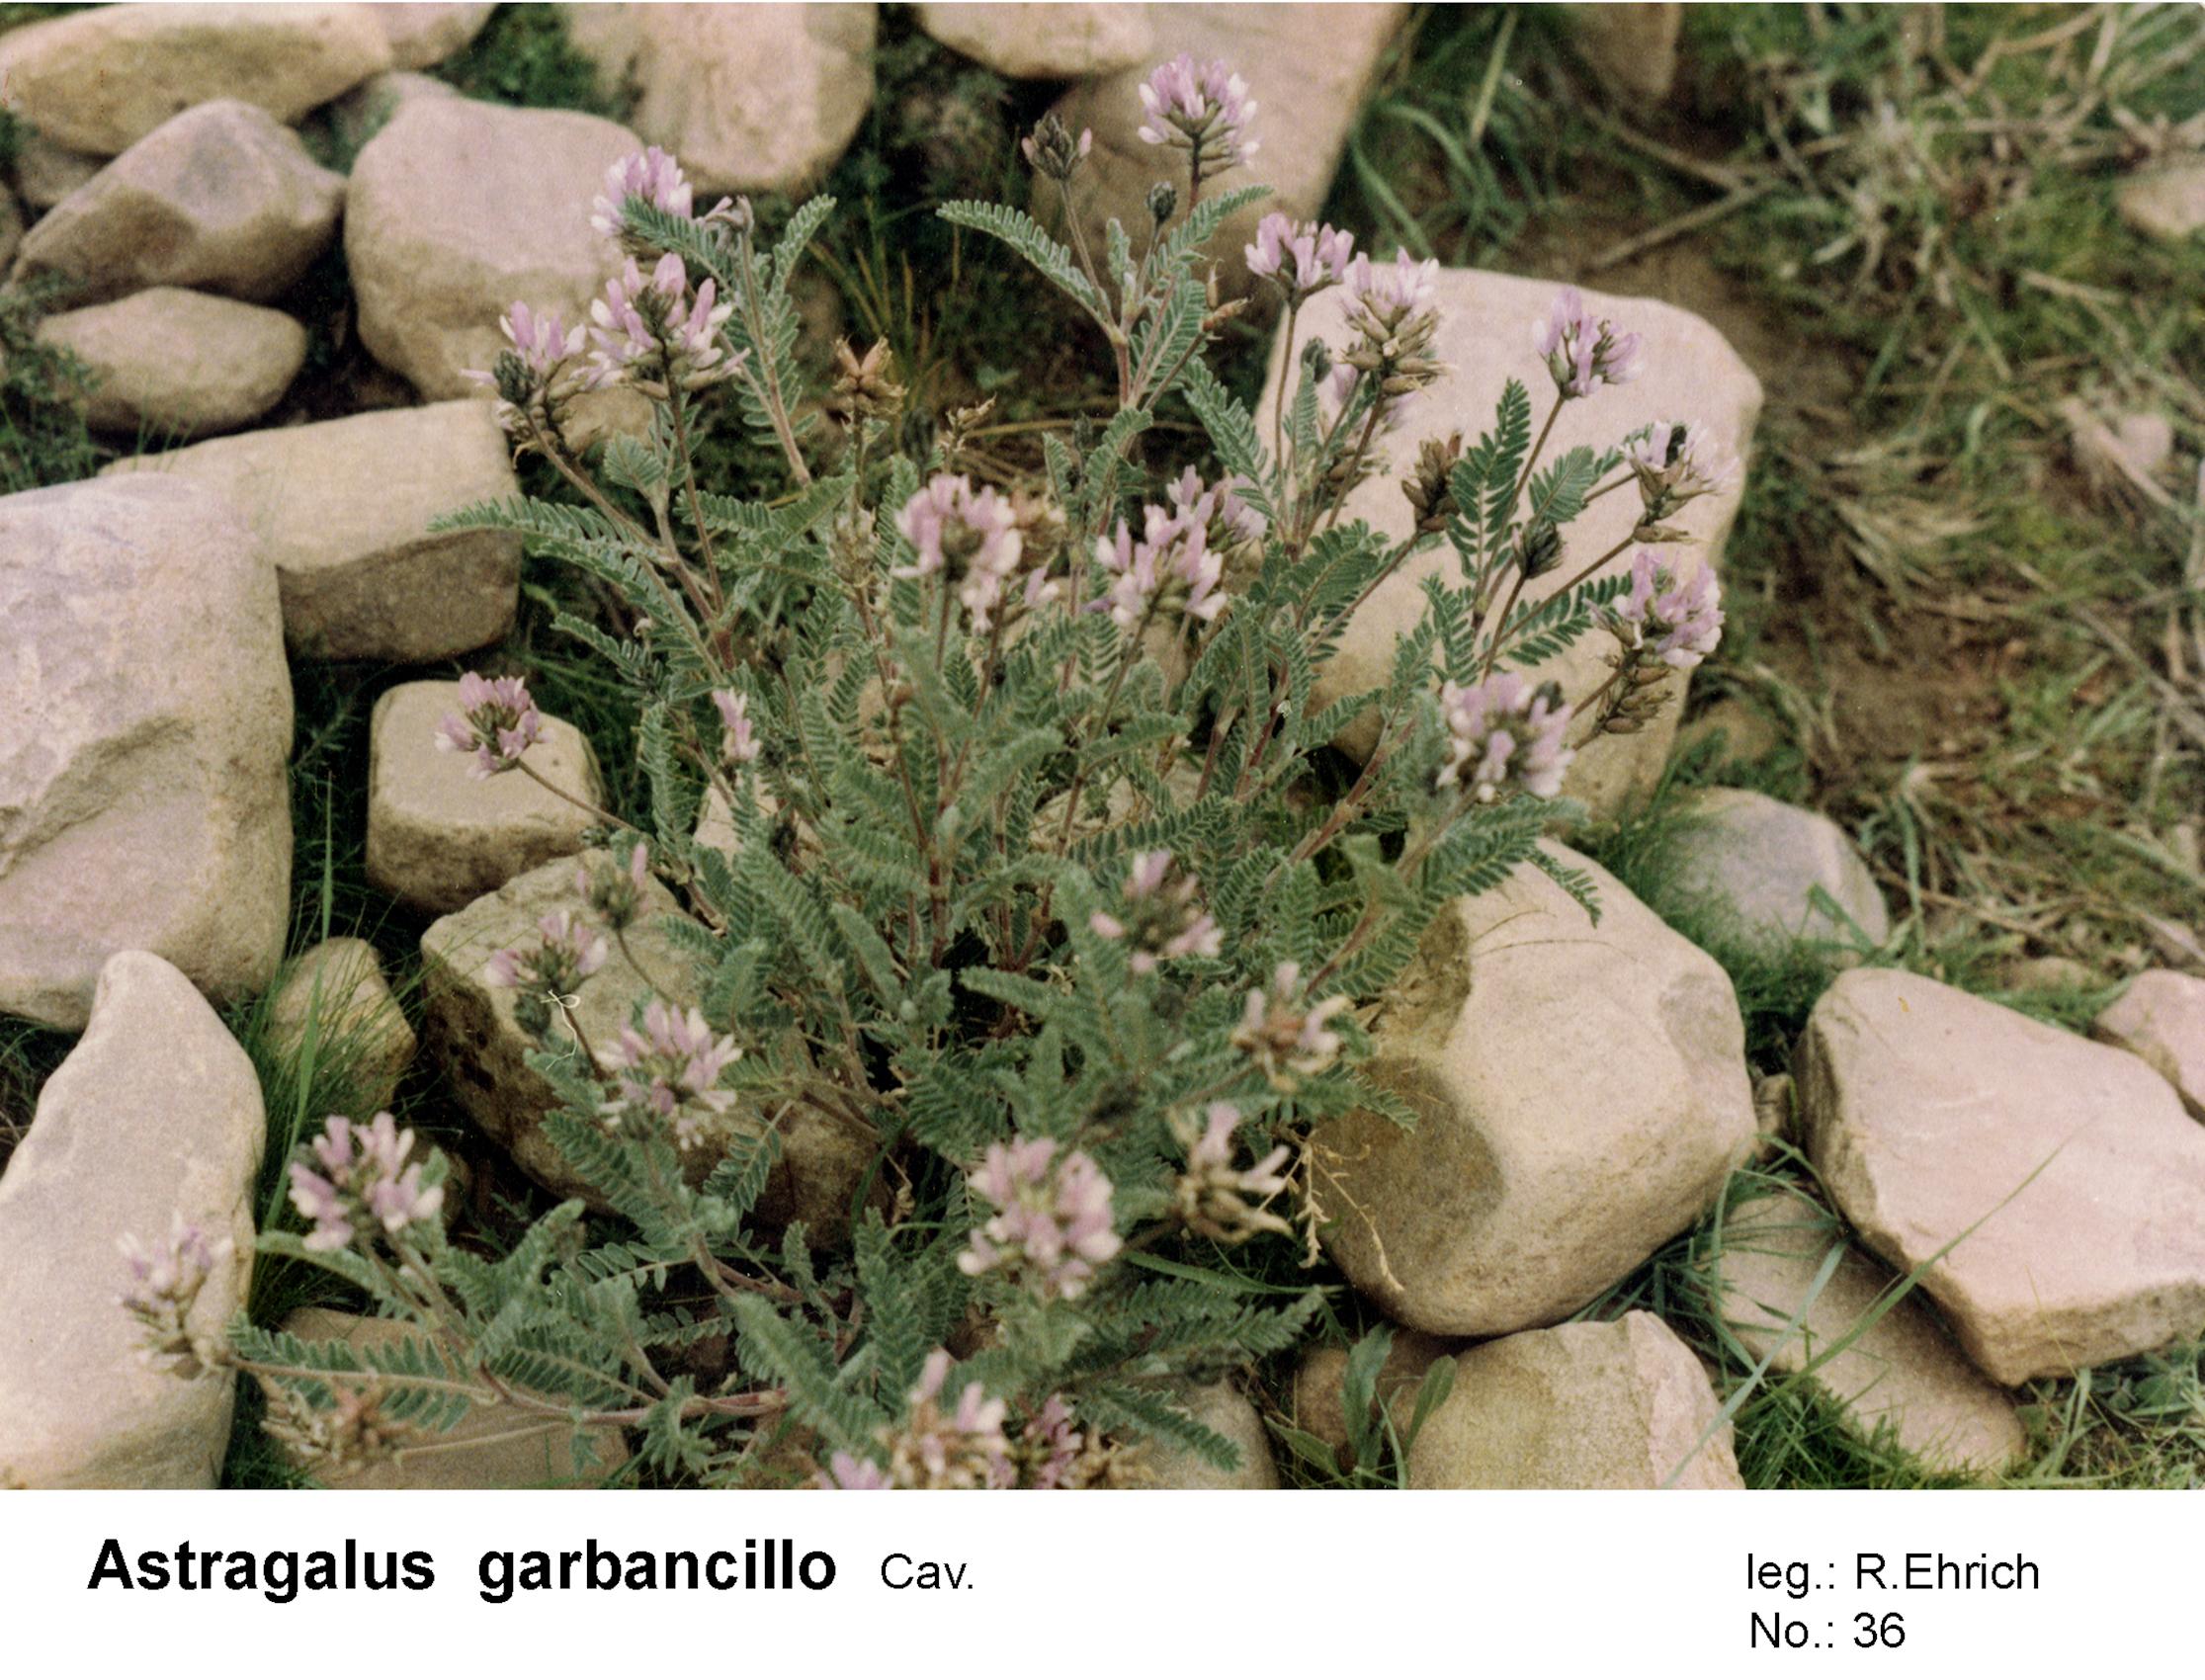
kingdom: Plantae
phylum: Tracheophyta
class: Magnoliopsida
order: Fabales
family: Fabaceae
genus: Astragalus
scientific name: Astragalus garbancillo
